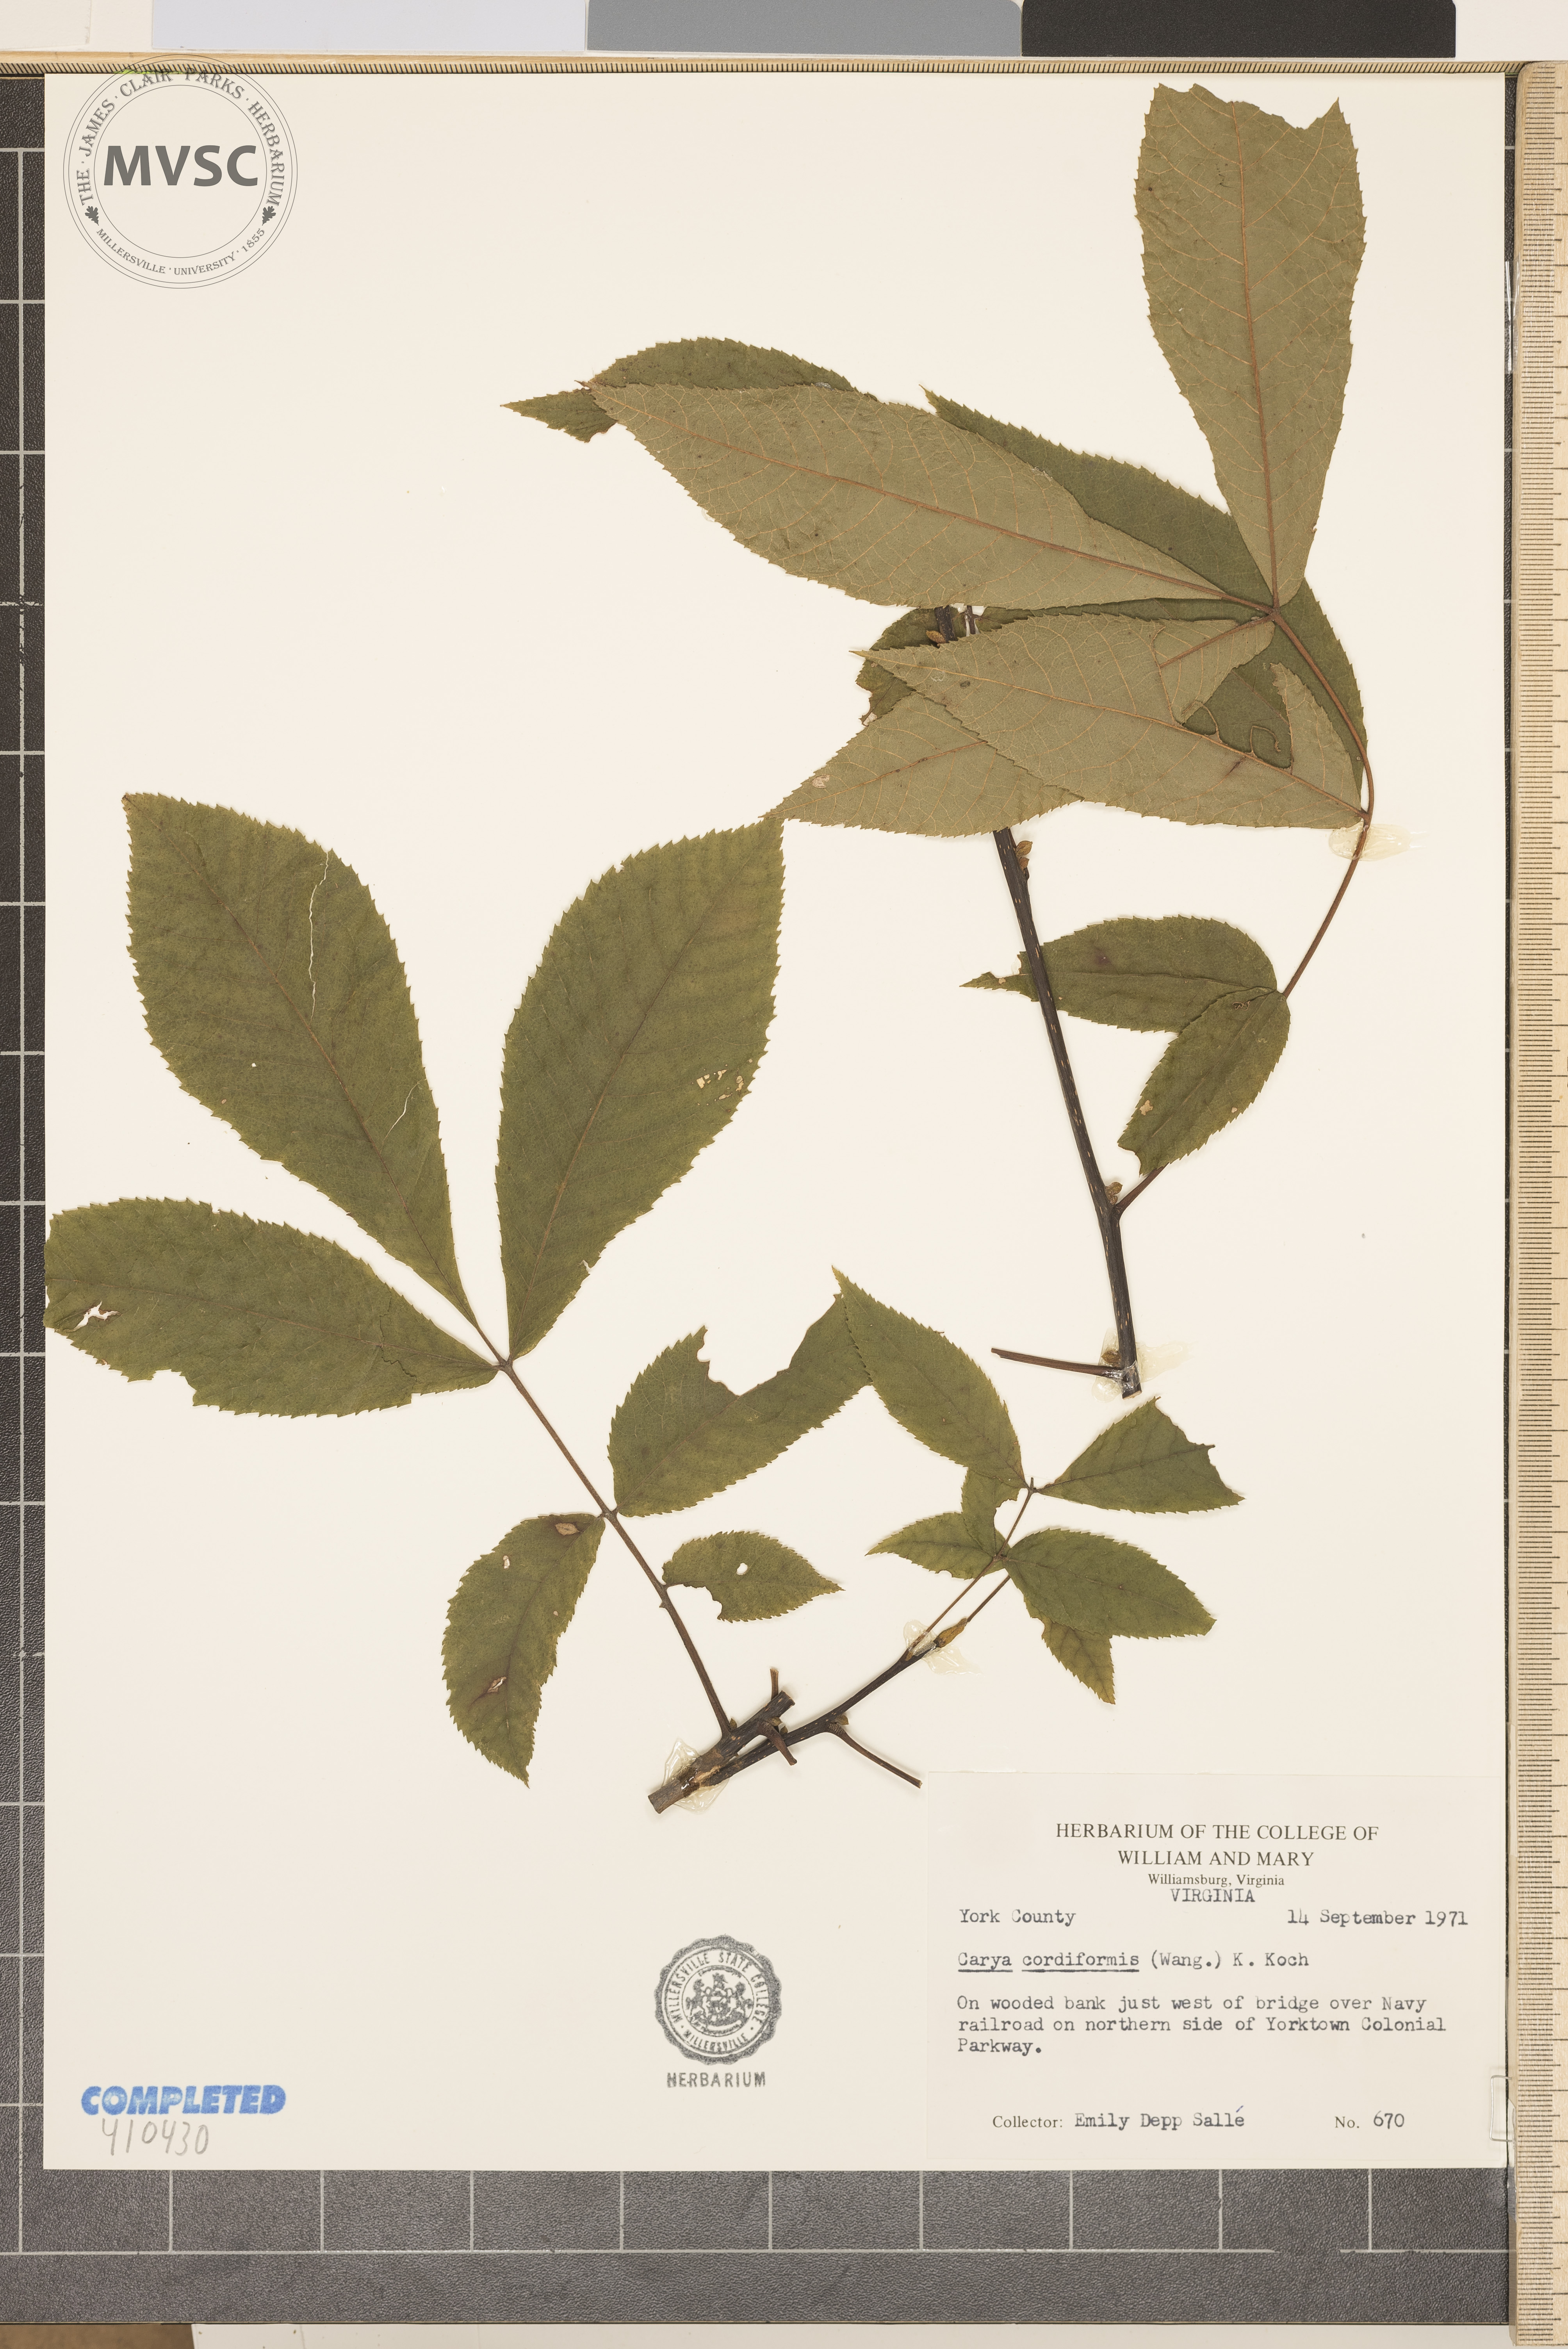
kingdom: Plantae
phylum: Tracheophyta
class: Magnoliopsida
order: Fagales
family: Juglandaceae
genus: Carya
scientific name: Carya cordiformis
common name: Bitternut hickory
